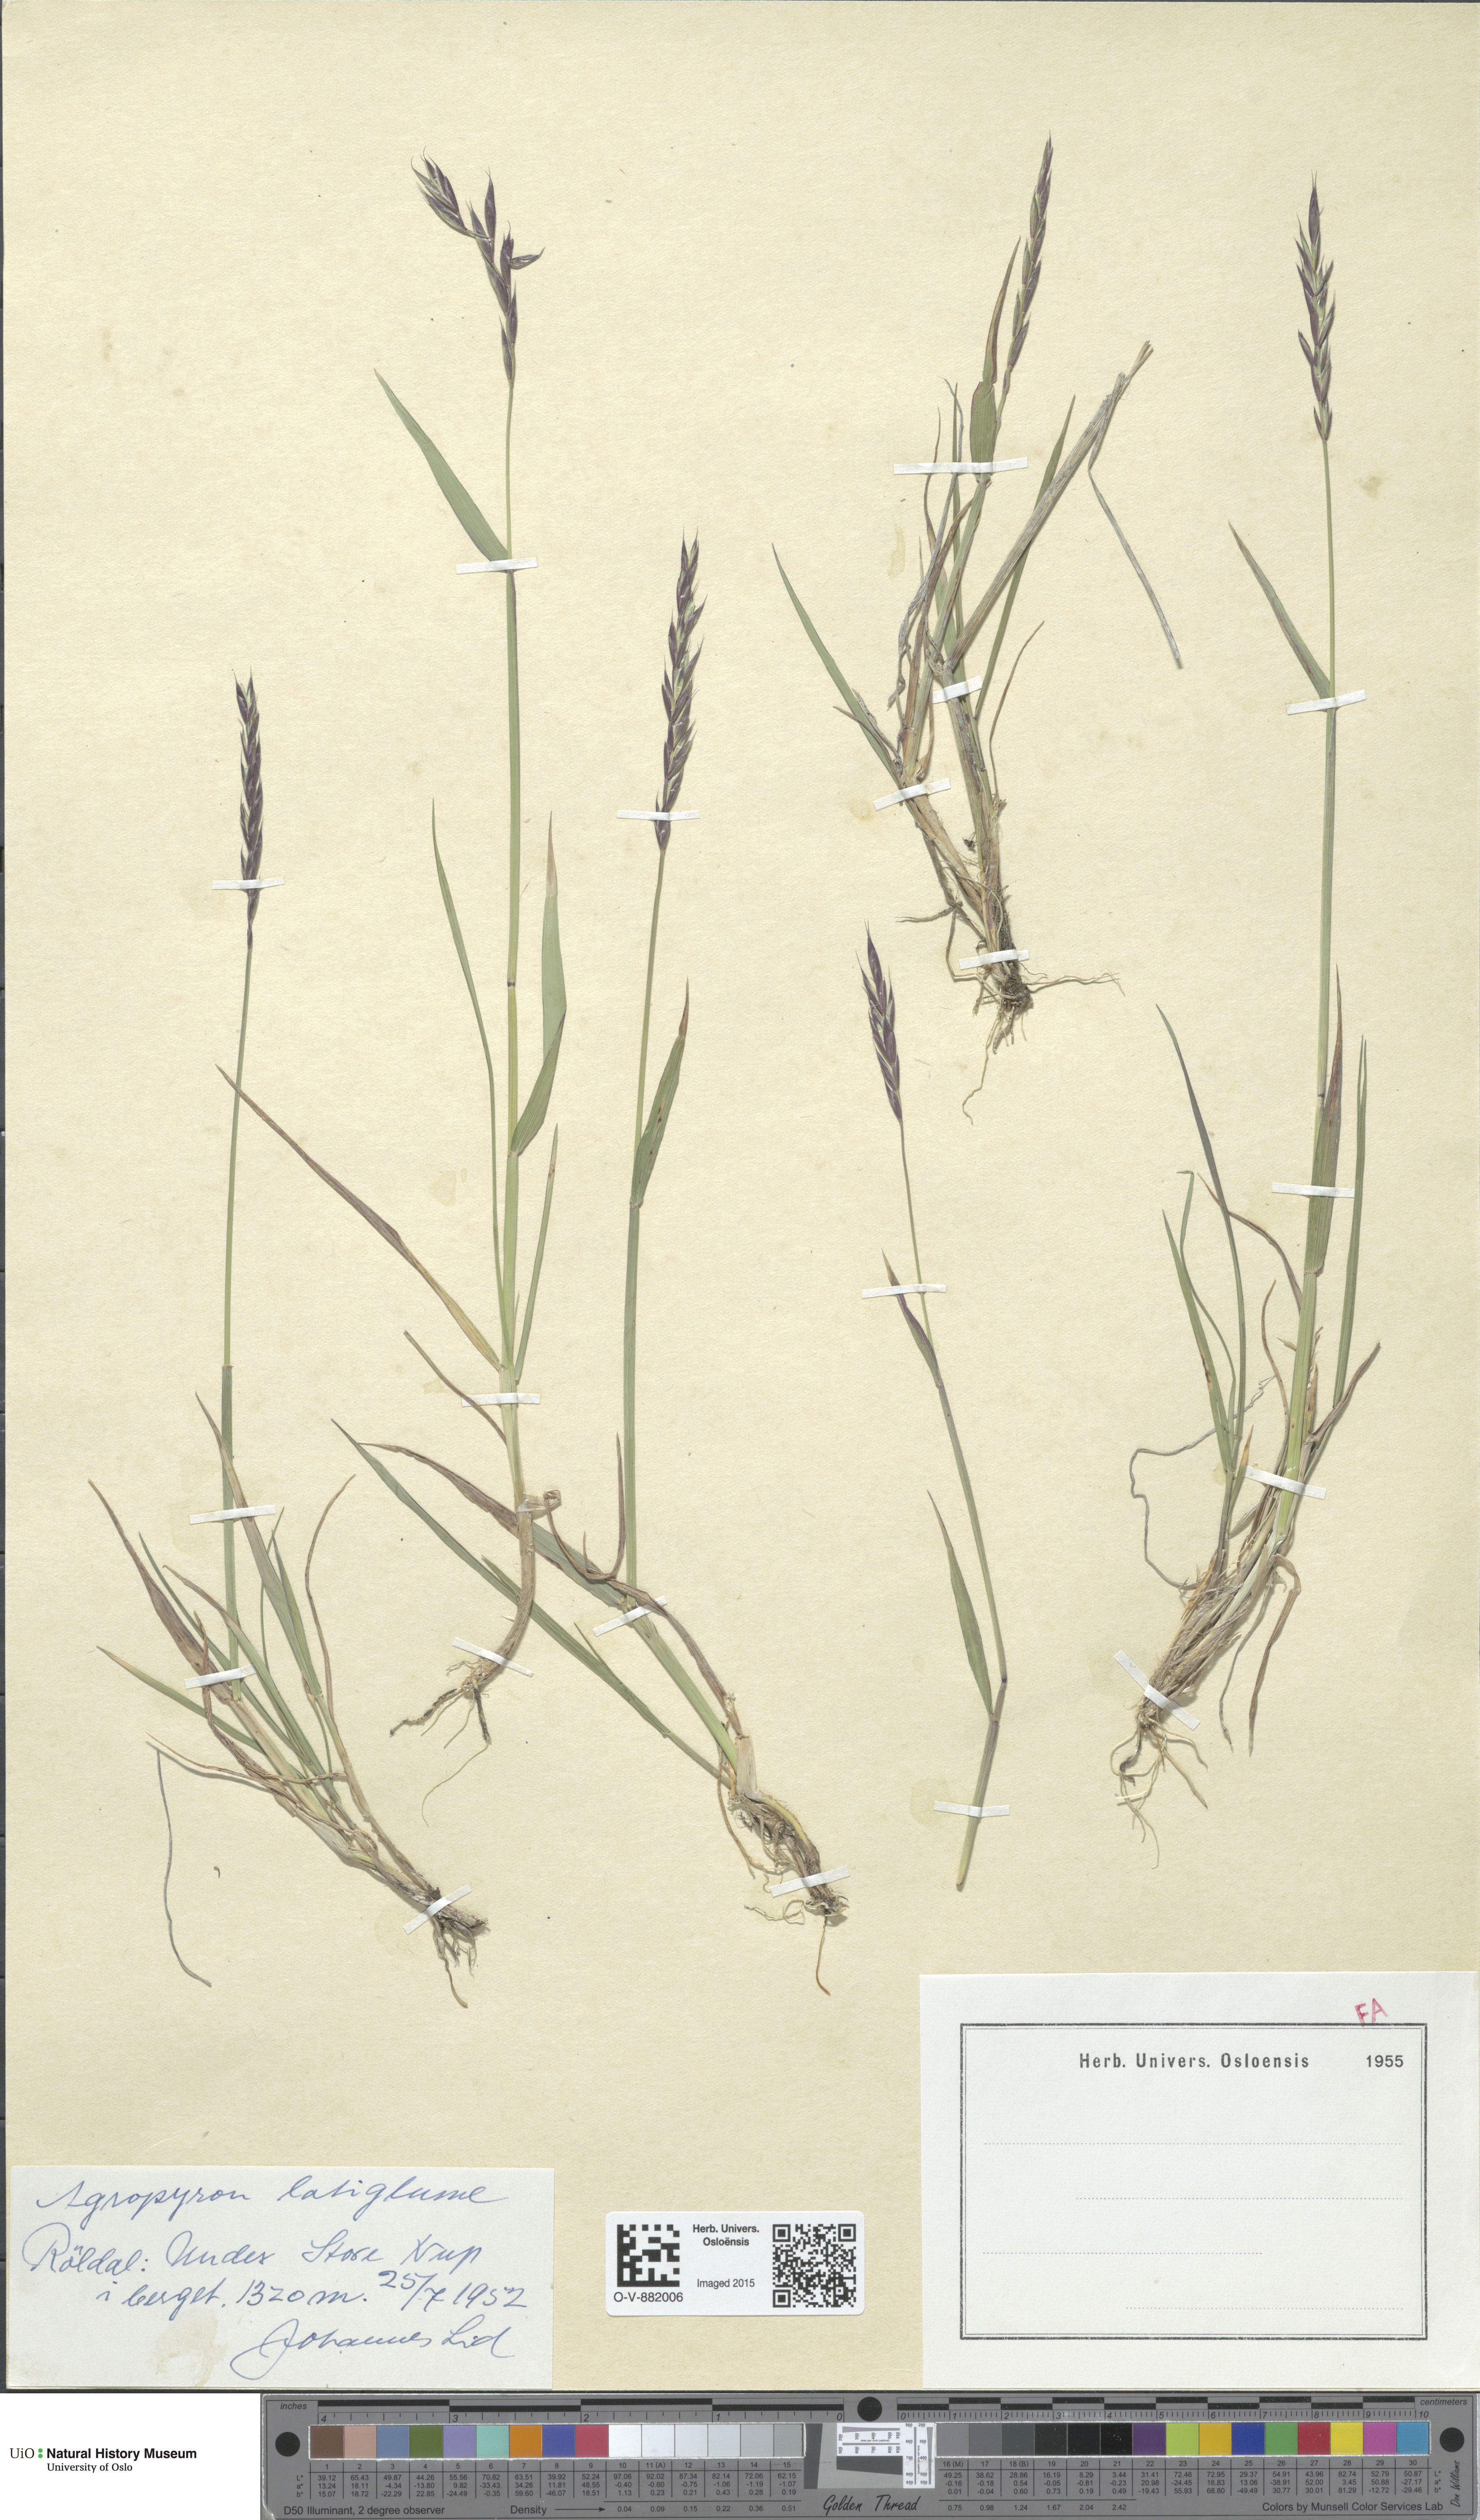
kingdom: Plantae
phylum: Tracheophyta
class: Liliopsida
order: Poales
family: Poaceae
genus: Elymus
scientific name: Elymus macrourus
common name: Northern wheatgrass
